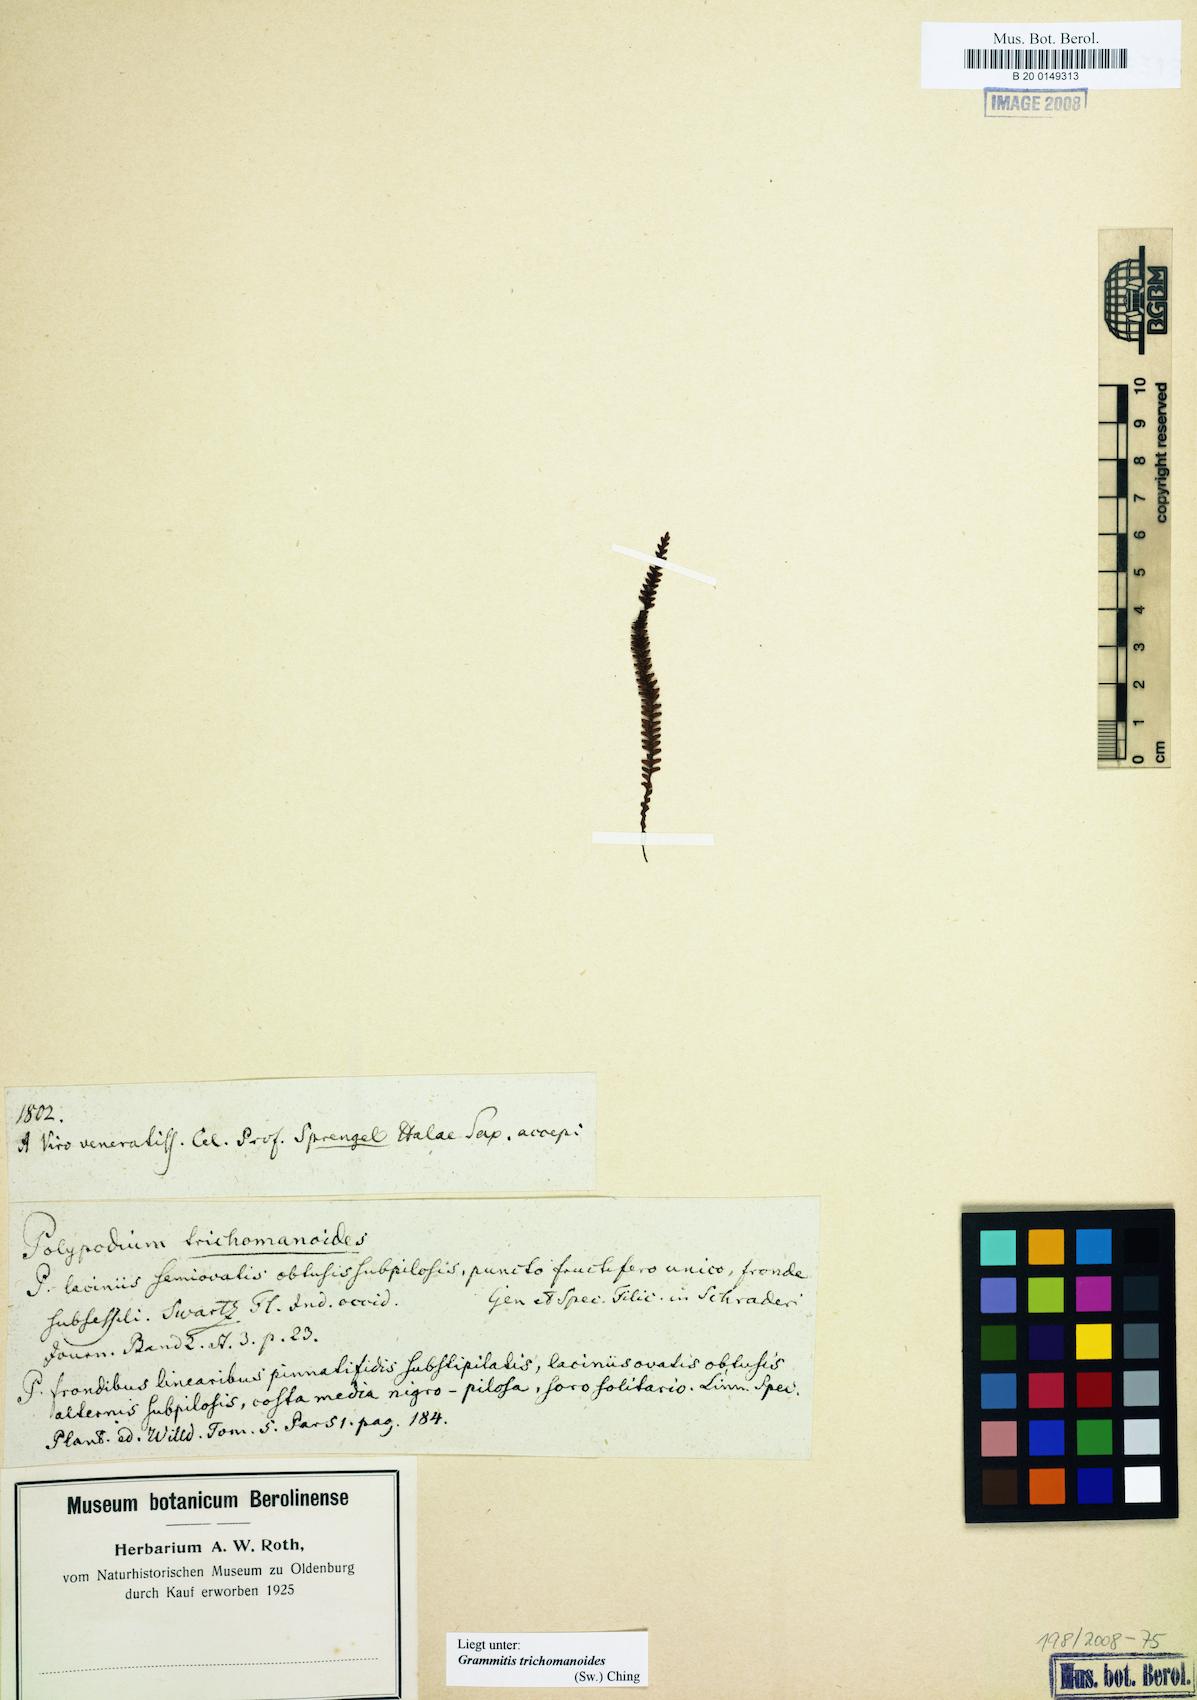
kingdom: Plantae
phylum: Tracheophyta
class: Polypodiopsida
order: Polypodiales
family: Polypodiaceae
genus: Moranopteris
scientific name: Moranopteris trichomanoides
